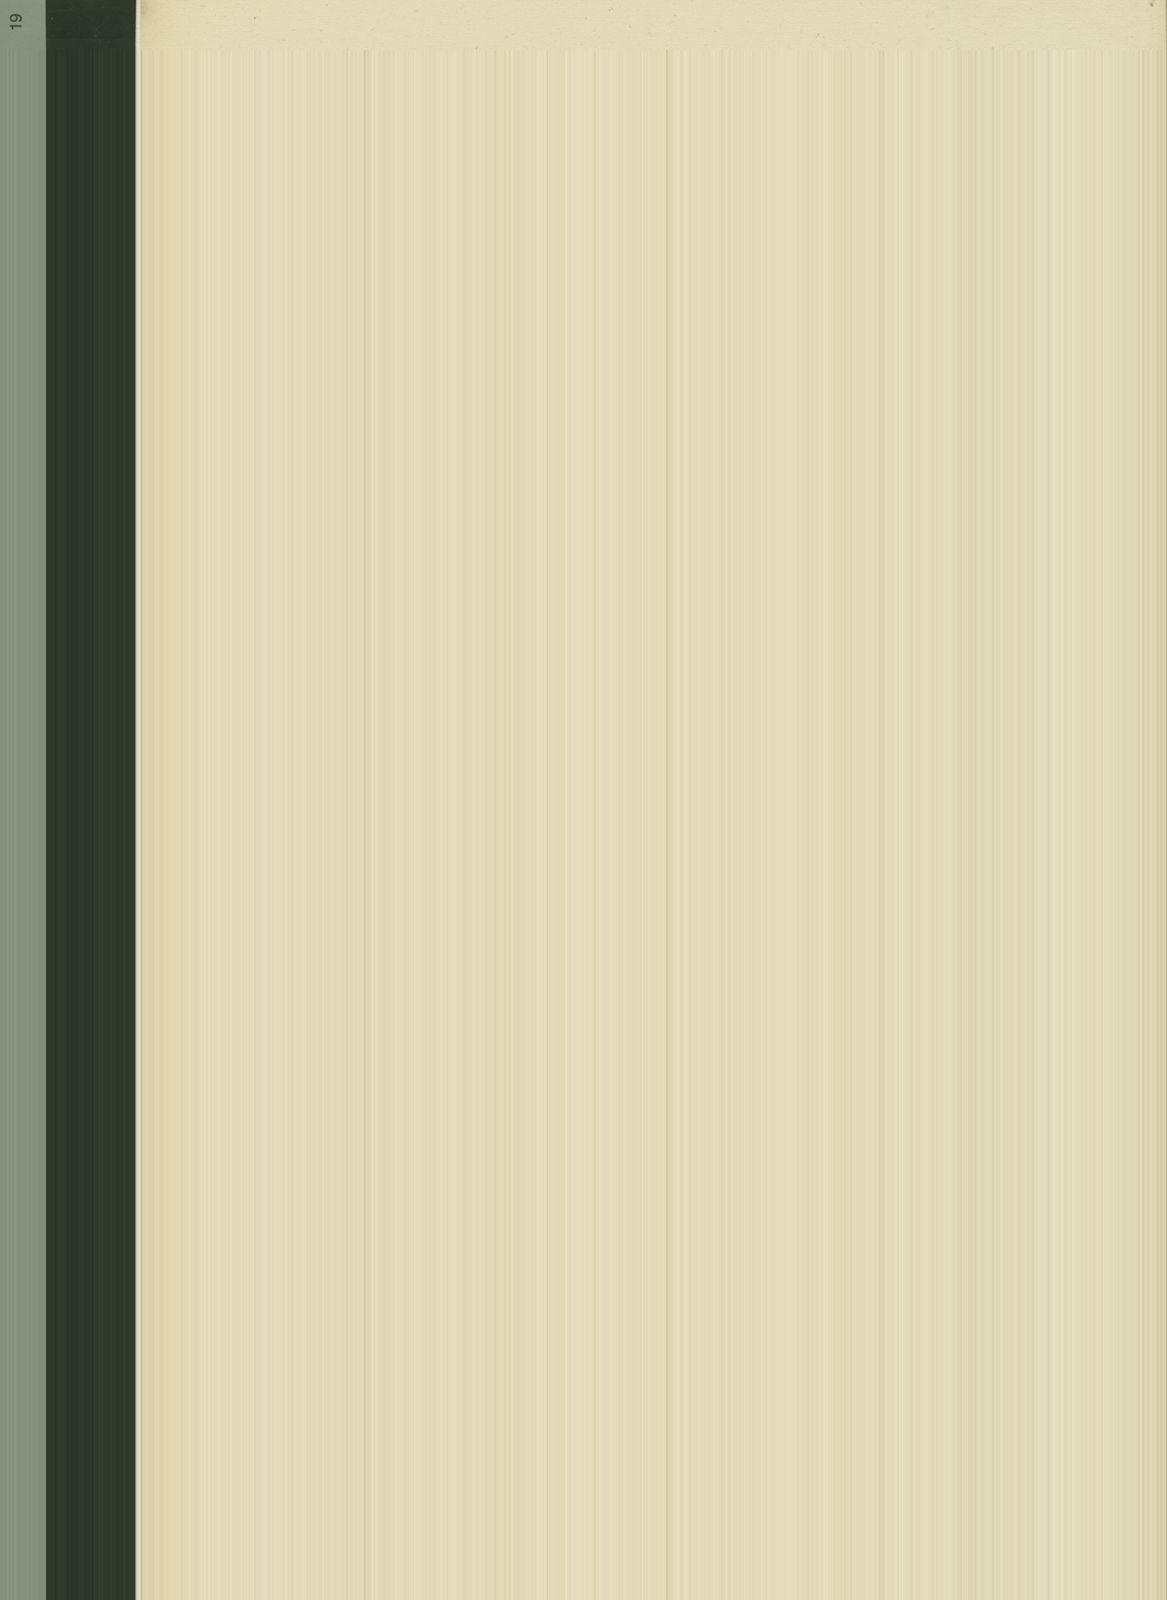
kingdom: Plantae
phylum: Tracheophyta
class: Magnoliopsida
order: Gentianales
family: Apocynaceae
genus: Ceropegia
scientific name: Ceropegia neocompta
